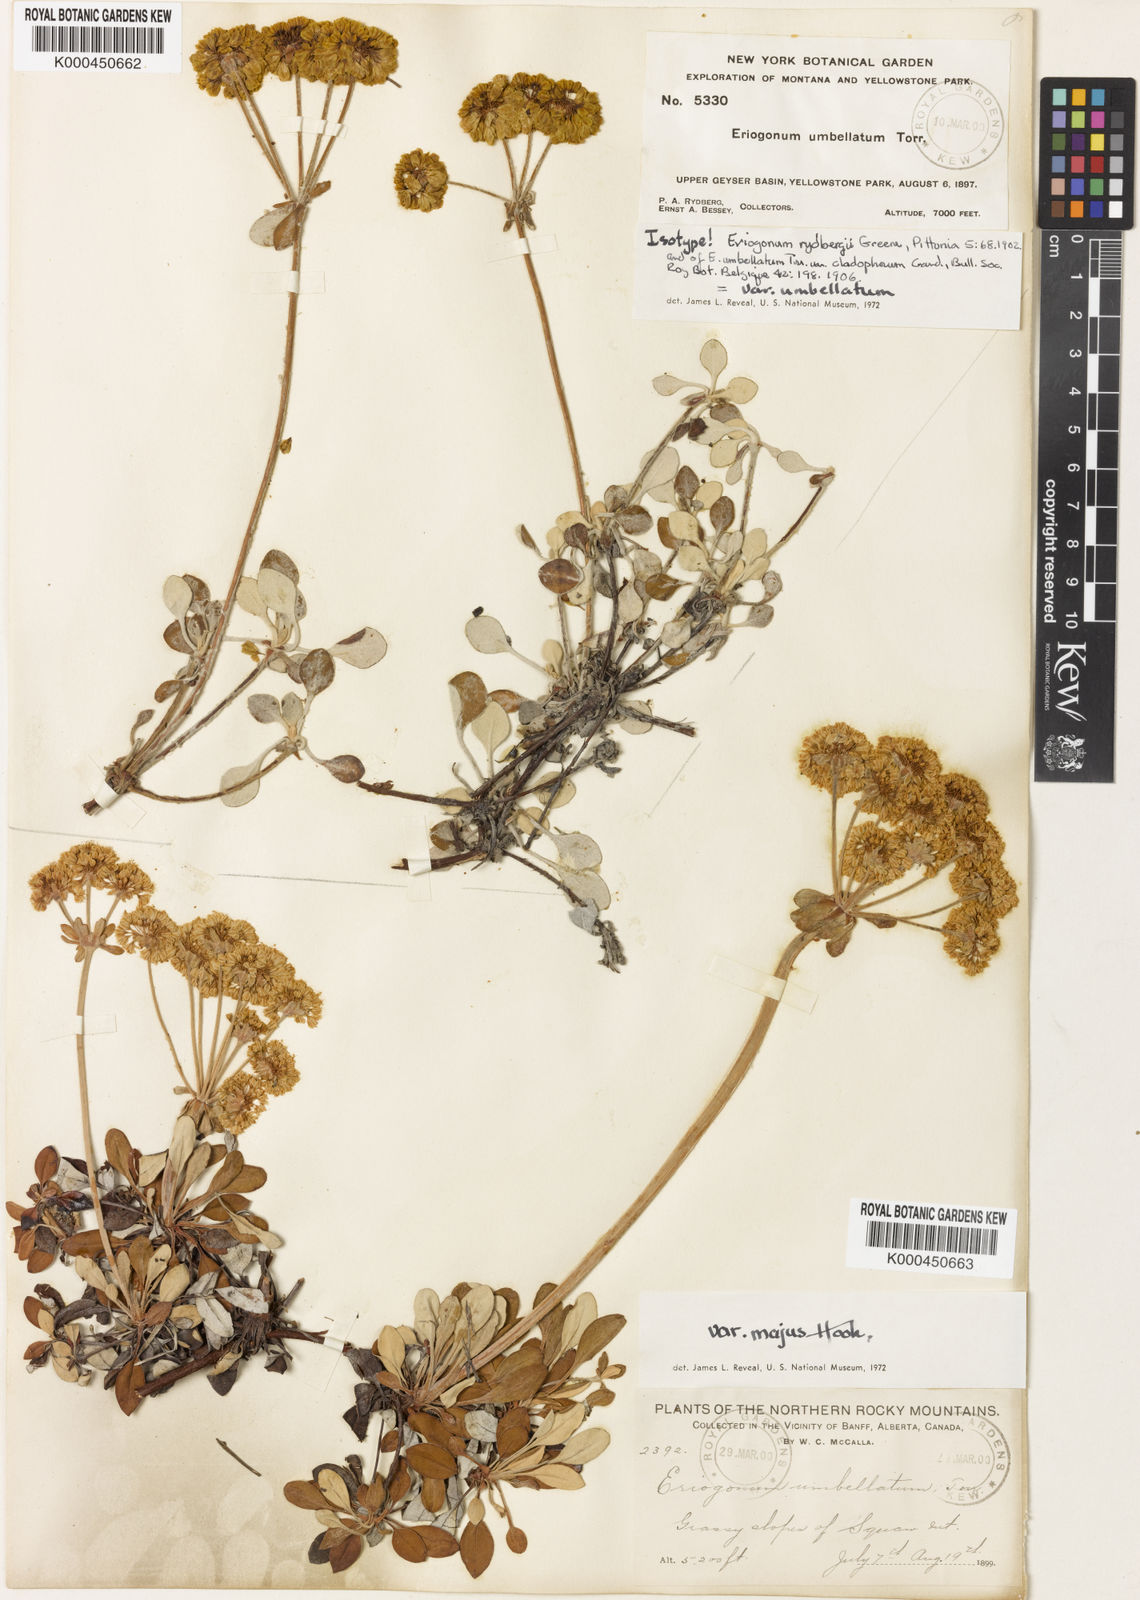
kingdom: Plantae
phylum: Tracheophyta
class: Magnoliopsida
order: Caryophyllales
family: Polygonaceae
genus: Eriogonum
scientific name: Eriogonum umbellatum
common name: Sulfur-buckwheat
